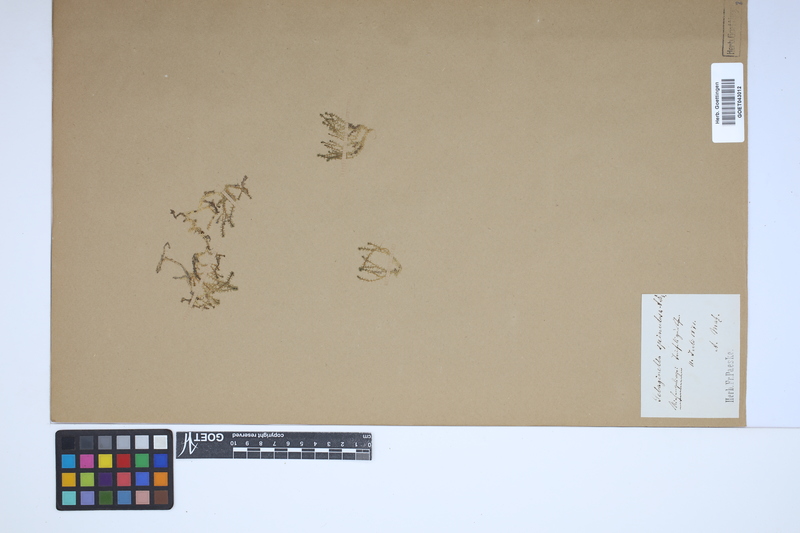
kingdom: Plantae
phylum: Tracheophyta
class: Lycopodiopsida
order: Selaginellales
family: Selaginellaceae
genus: Selaginella
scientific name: Selaginella selaginoides
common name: Prickly mountain-moss
